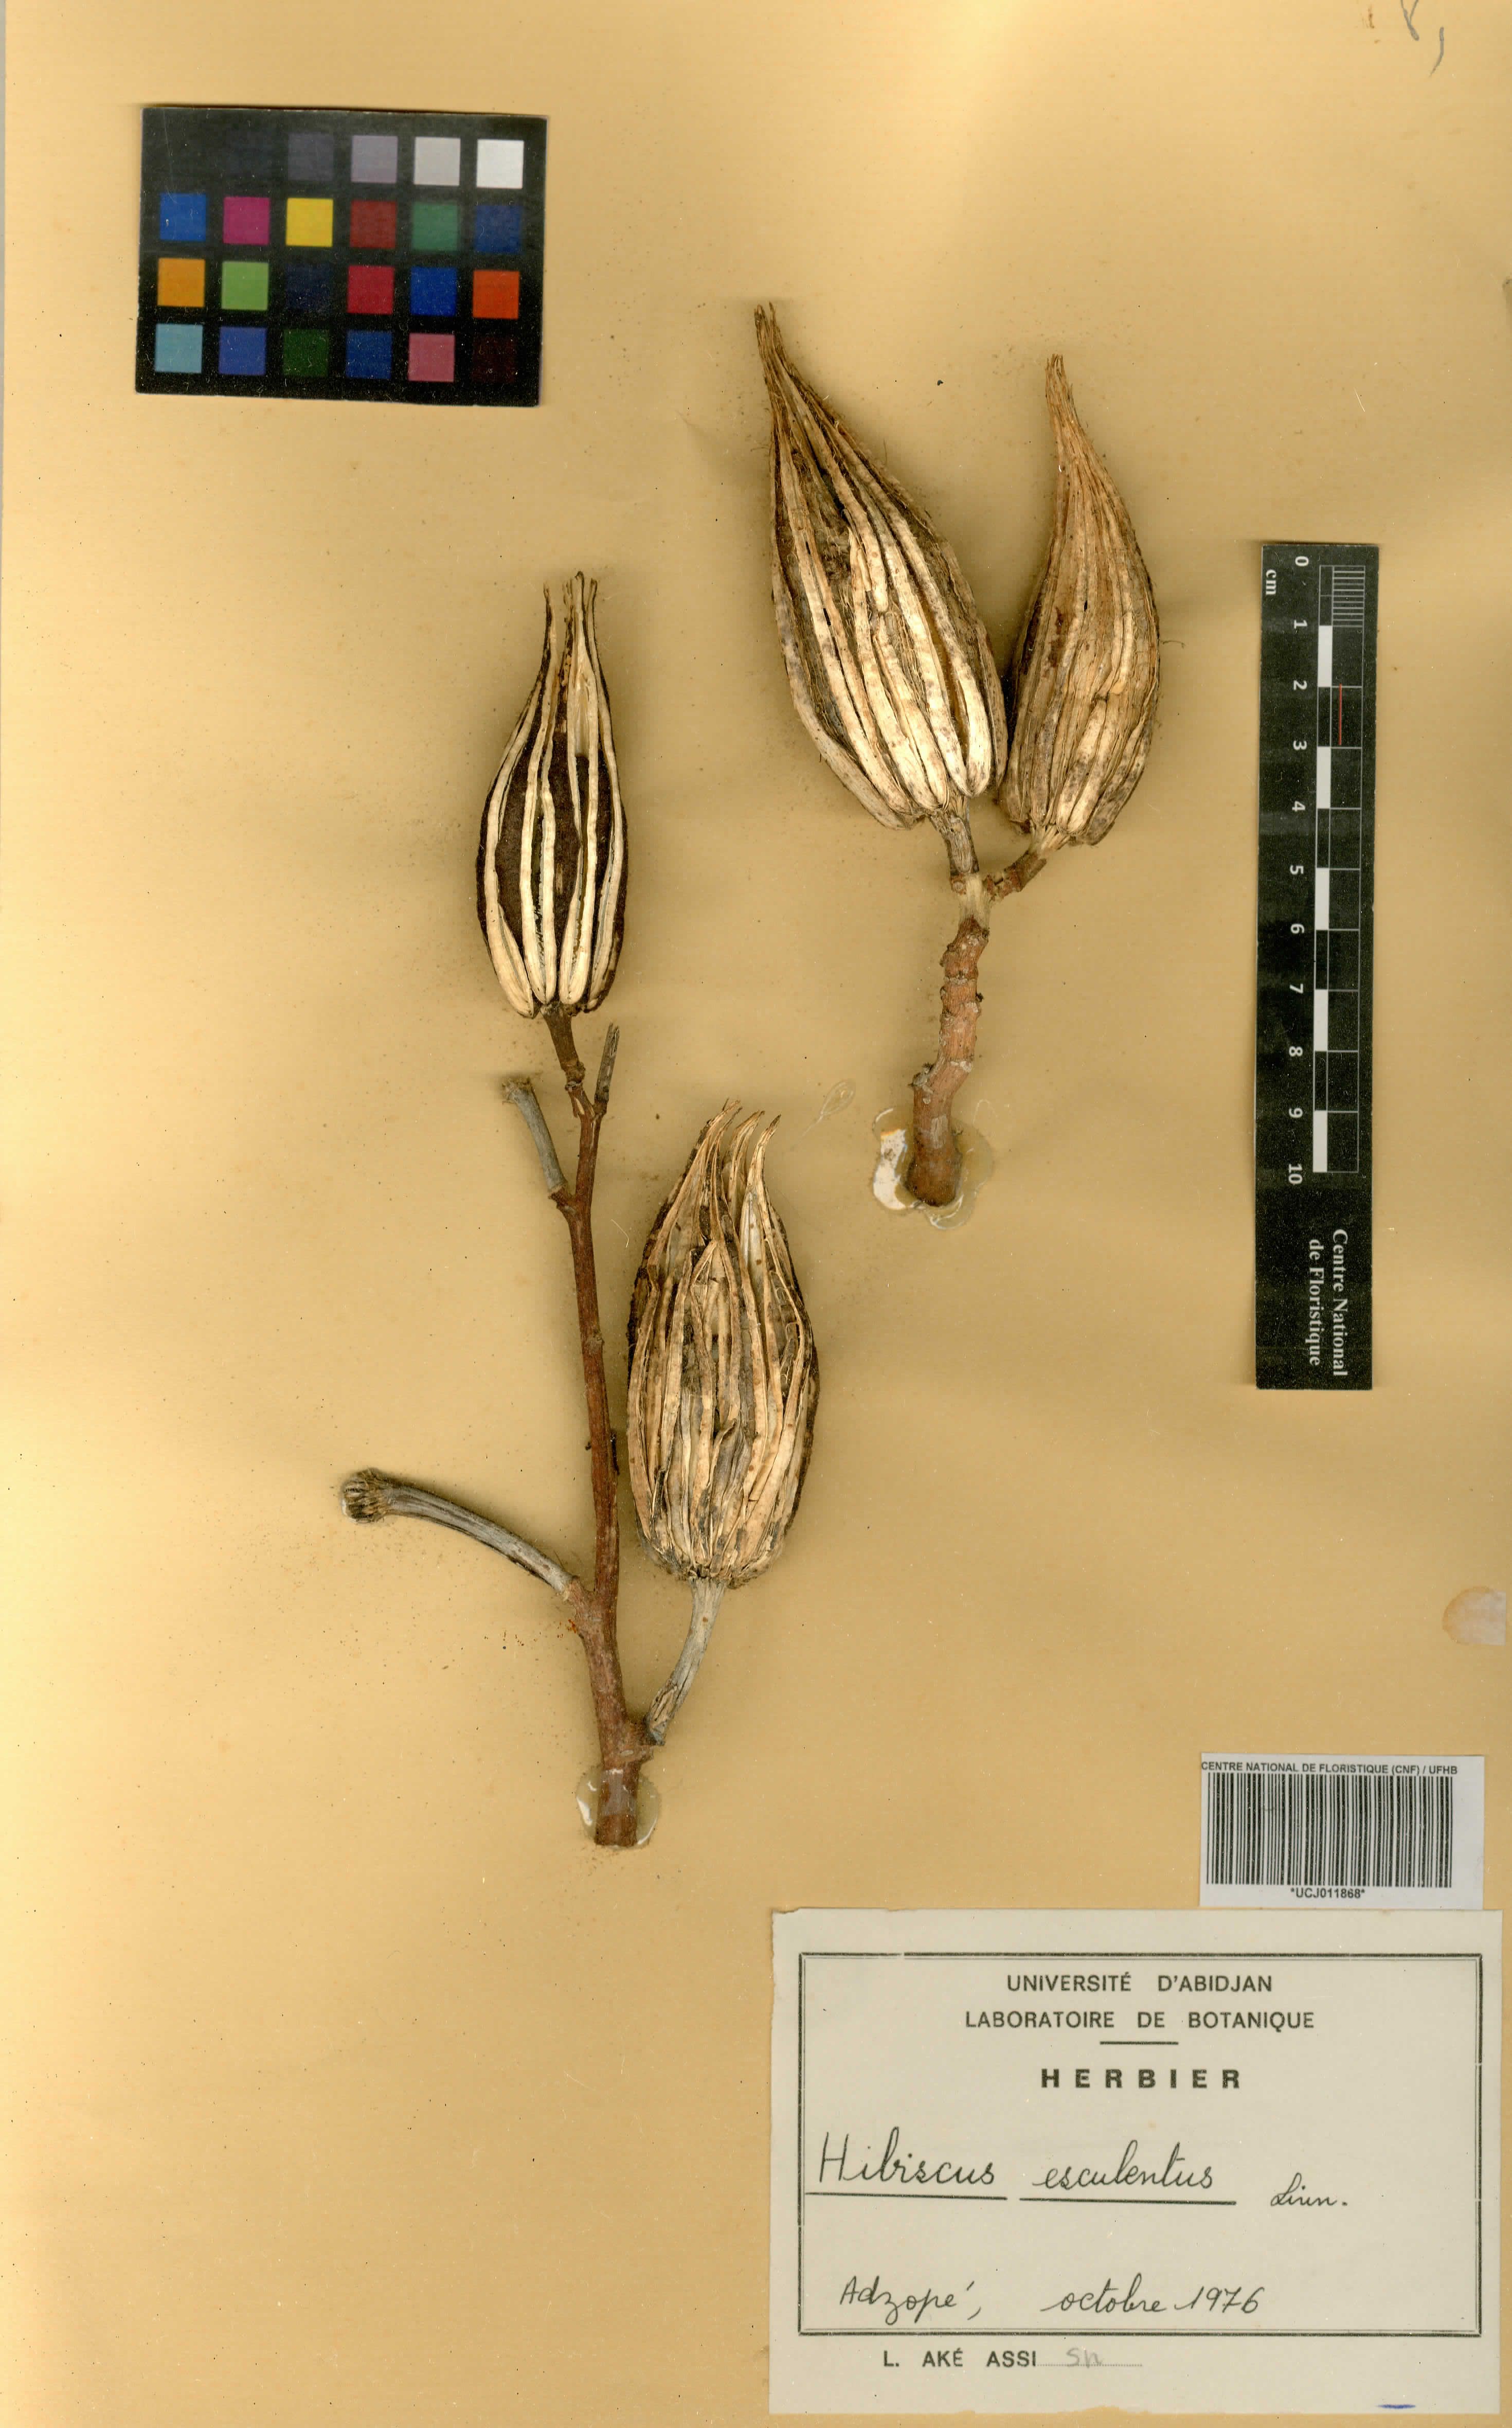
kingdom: Plantae
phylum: Tracheophyta
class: Magnoliopsida
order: Malvales
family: Malvaceae
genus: Abelmoschus
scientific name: Abelmoschus esculentus
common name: Okra
